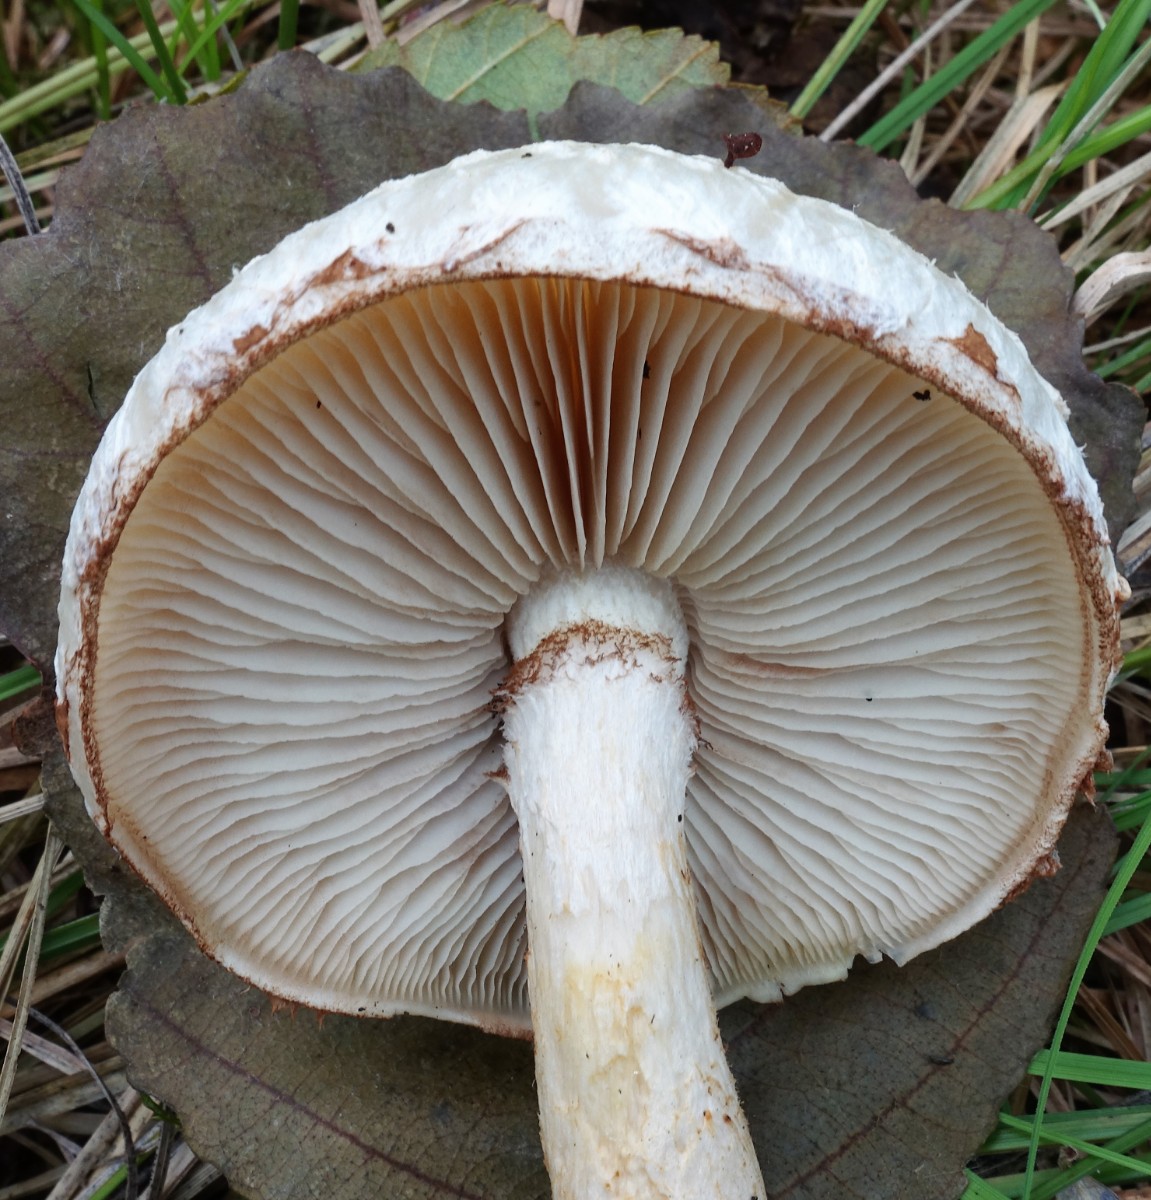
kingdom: Fungi
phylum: Basidiomycota
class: Agaricomycetes
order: Agaricales
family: Strophariaceae
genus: Pholiota
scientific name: Pholiota heteroclita
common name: duftende kæmpeskælhat
